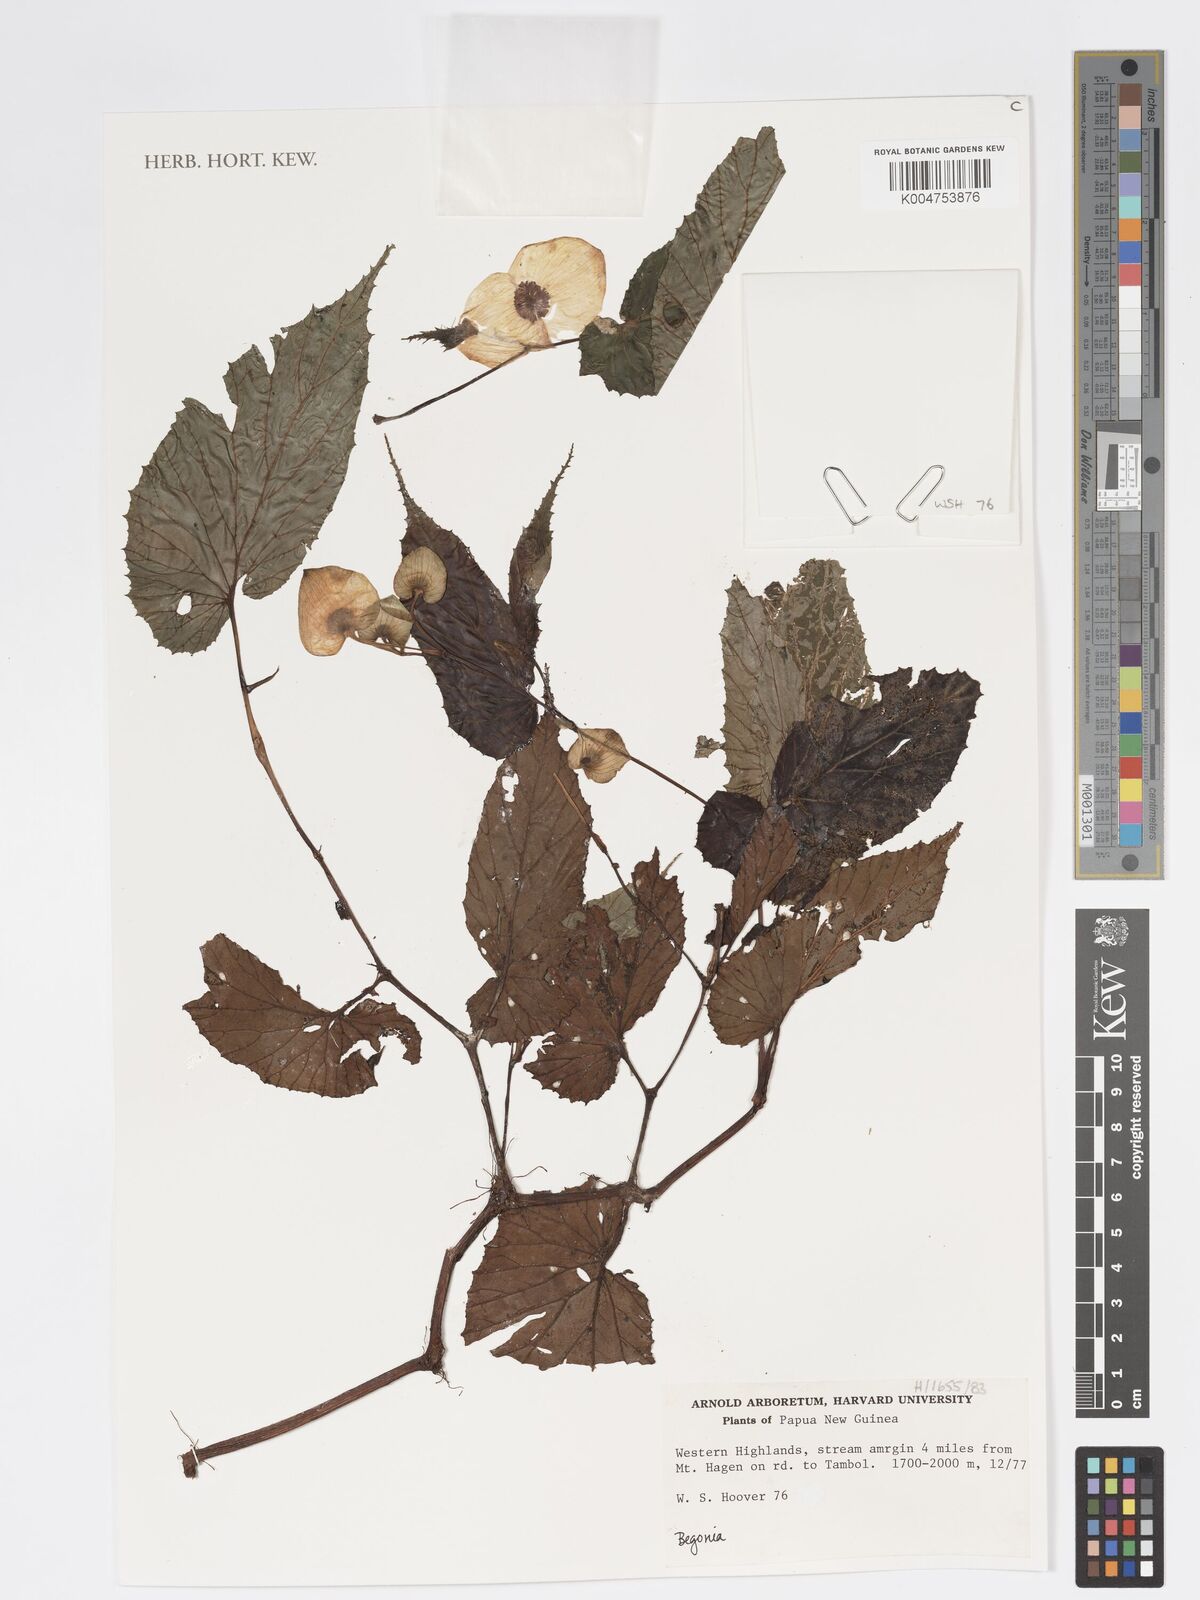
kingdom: Plantae
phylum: Tracheophyta
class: Magnoliopsida
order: Cucurbitales
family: Begoniaceae
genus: Begonia
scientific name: Begonia
